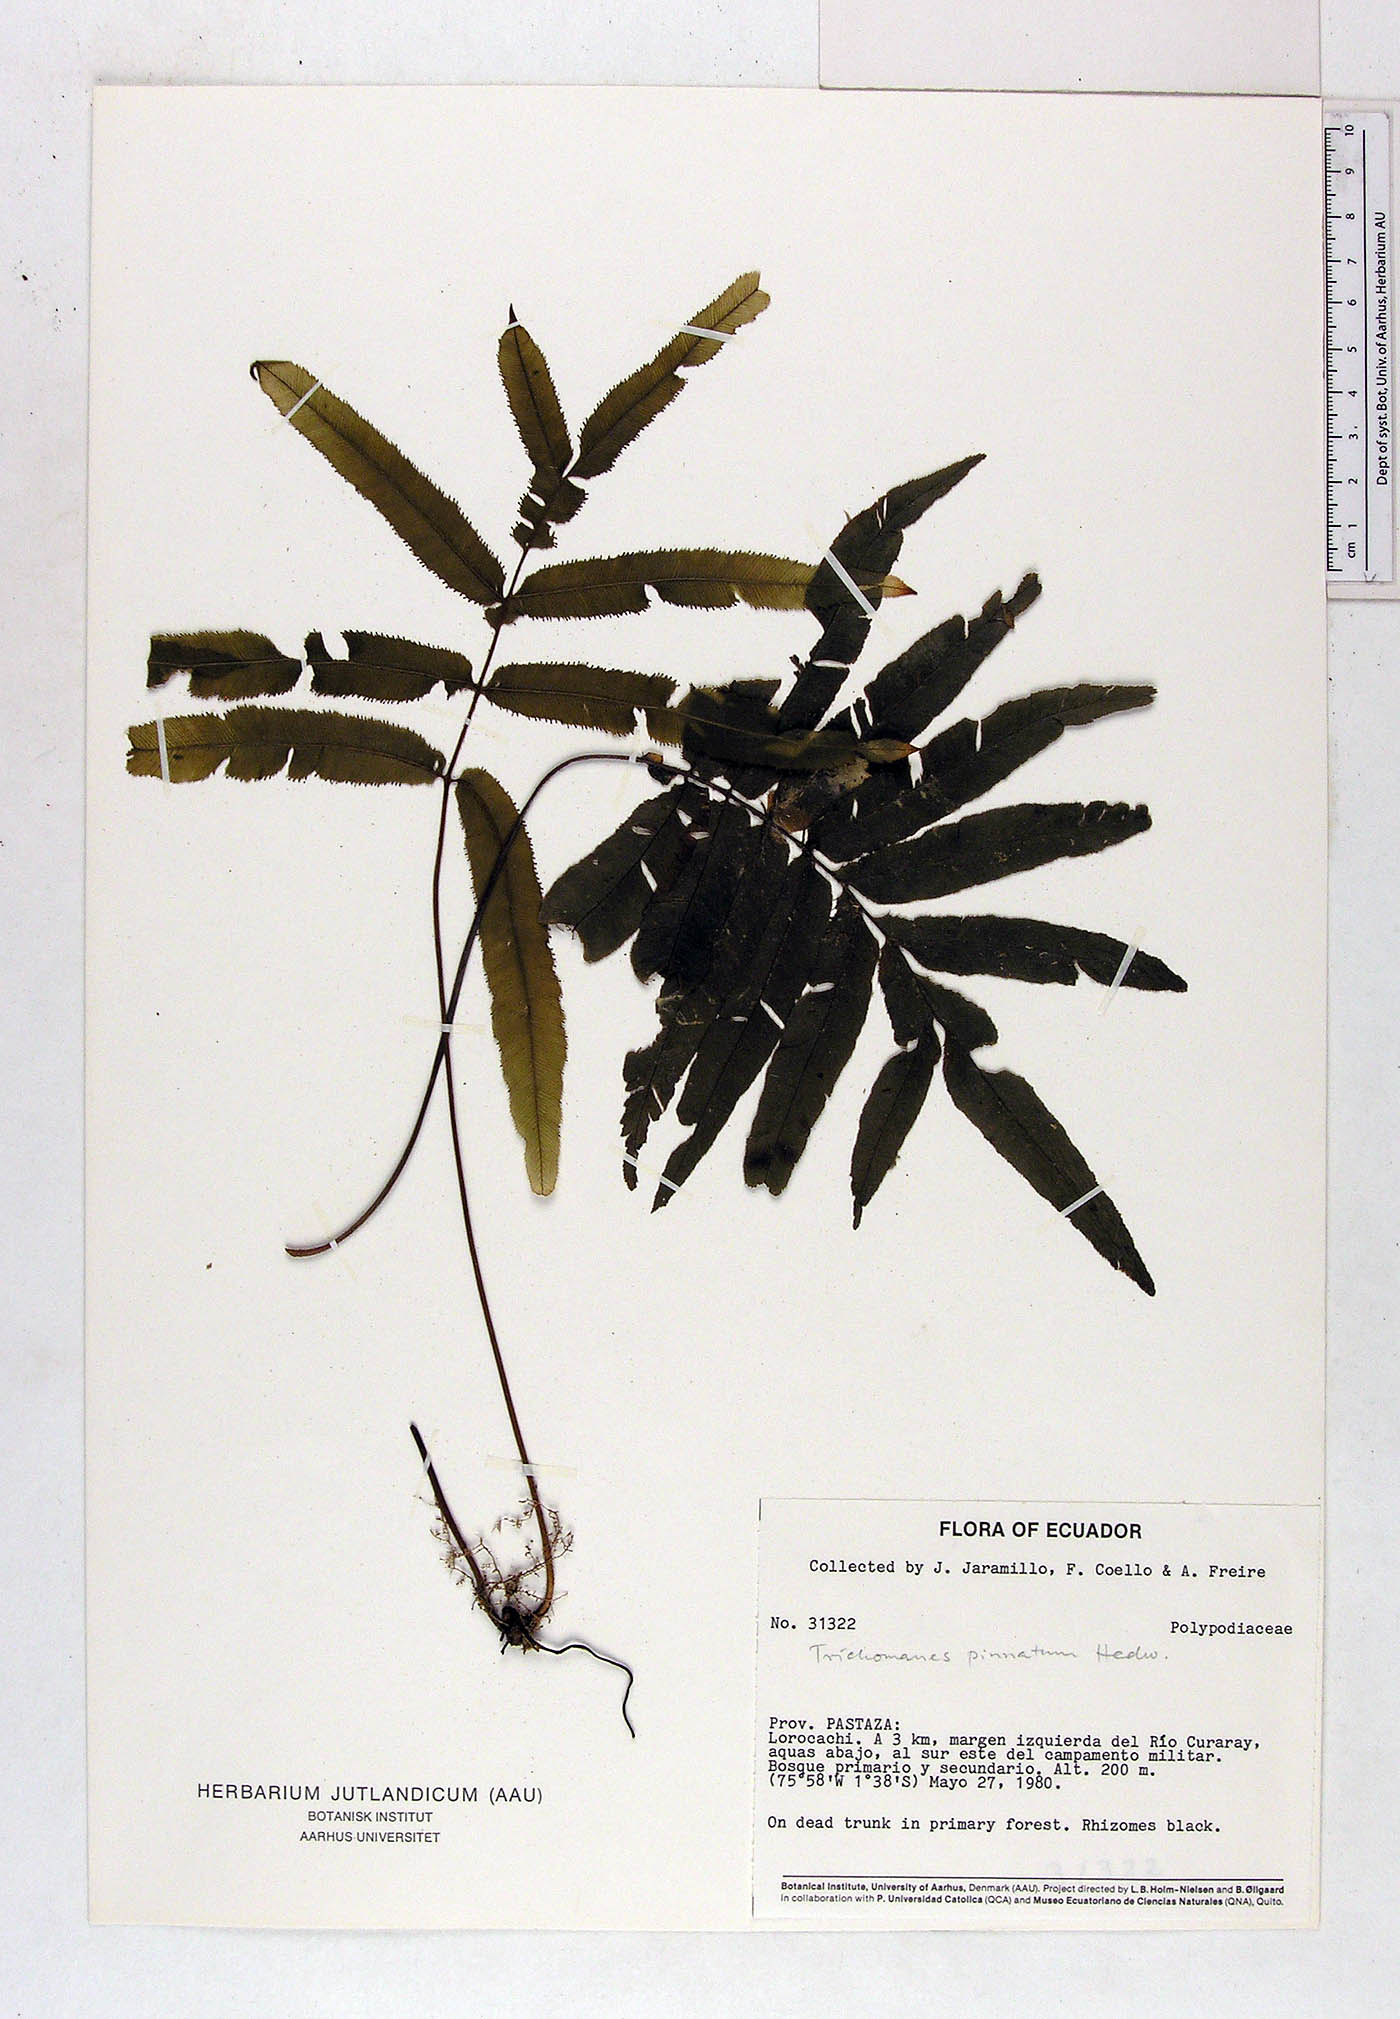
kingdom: Plantae
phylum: Tracheophyta
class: Polypodiopsida
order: Hymenophyllales
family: Hymenophyllaceae
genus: Trichomanes
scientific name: Trichomanes pinnatum
